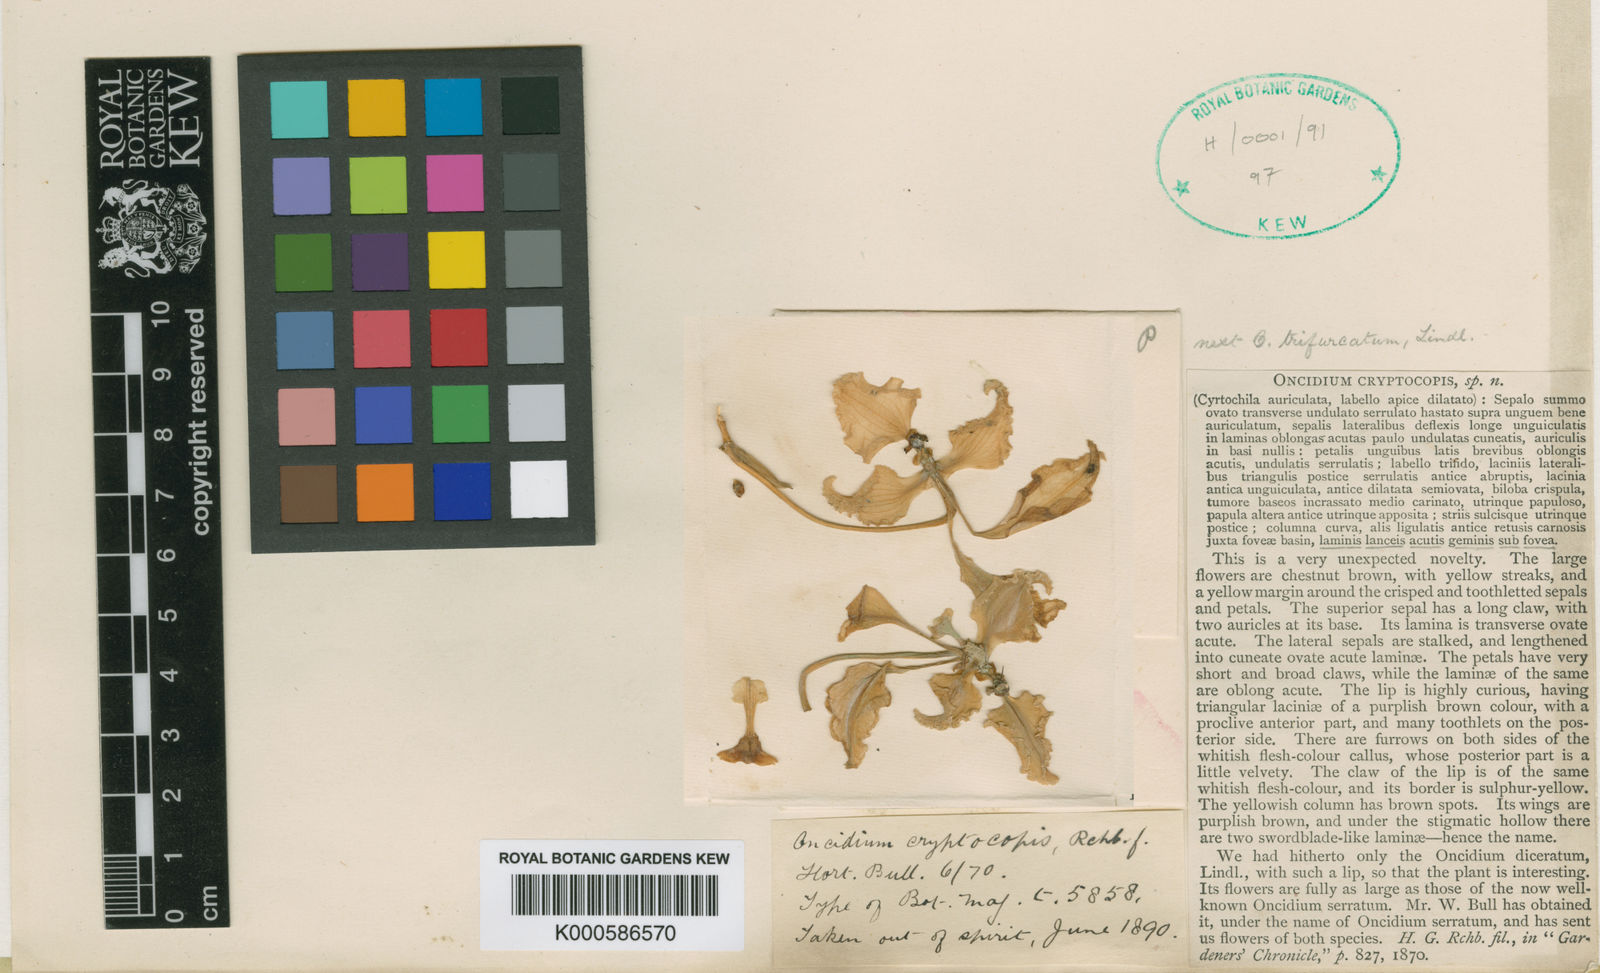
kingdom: Plantae
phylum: Tracheophyta
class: Liliopsida
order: Asparagales
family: Orchidaceae
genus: Cyrtochilum
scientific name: Cyrtochilum cryptocopis
